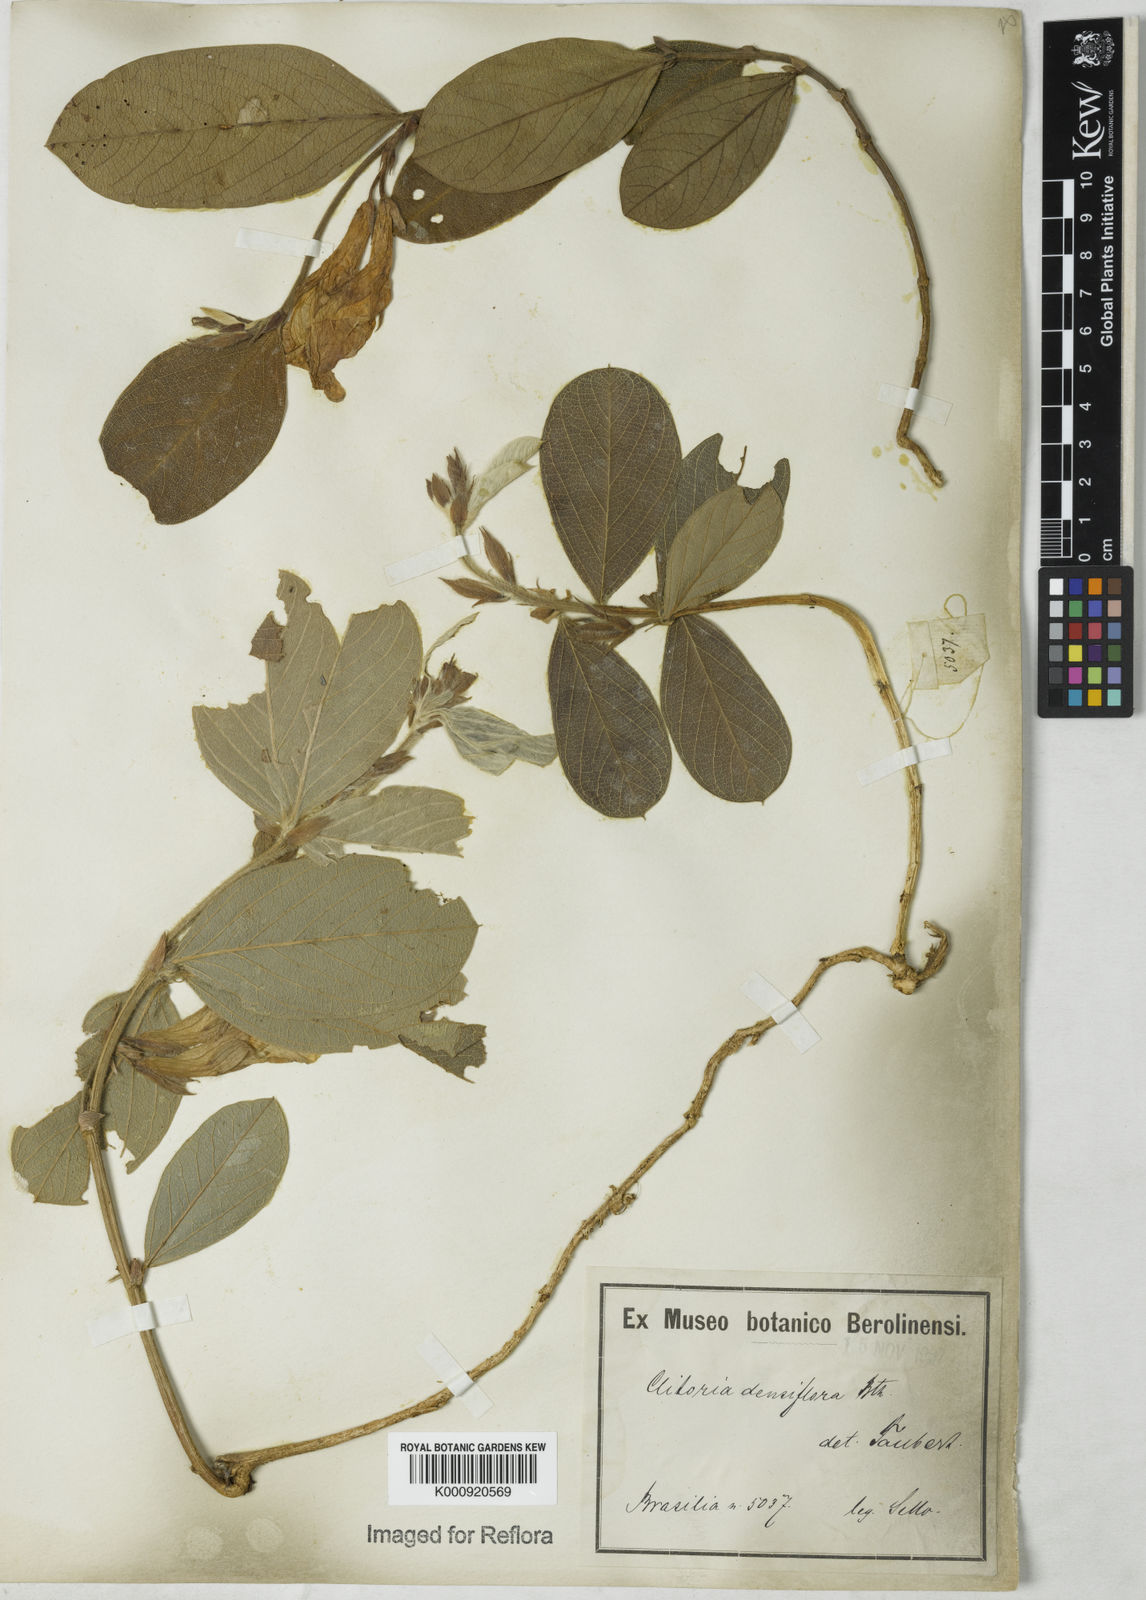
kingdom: Plantae
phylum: Tracheophyta
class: Magnoliopsida
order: Fabales
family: Fabaceae
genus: Clitoria
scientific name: Clitoria
